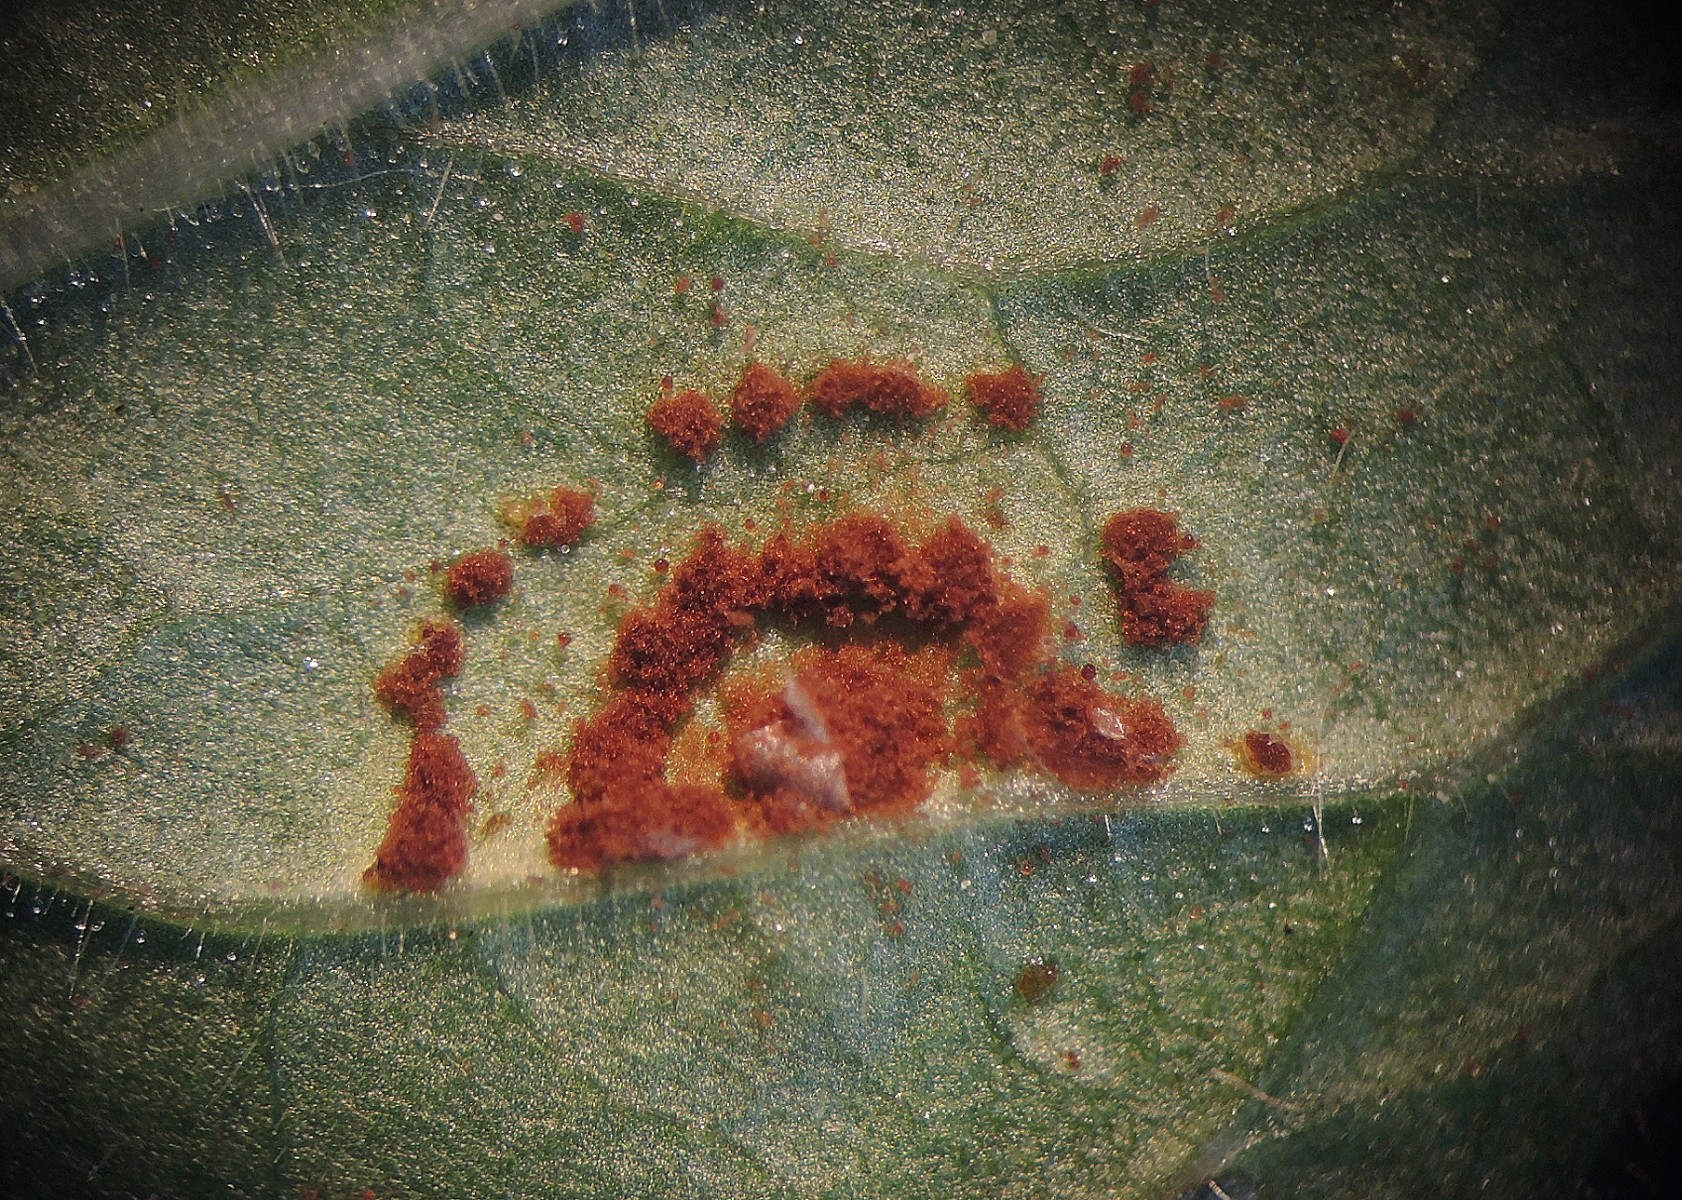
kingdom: Fungi
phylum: Basidiomycota
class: Pucciniomycetes
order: Pucciniales
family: Pucciniaceae
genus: Puccinia
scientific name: Puccinia pulverulenta
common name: dueurt-tvecellerust
